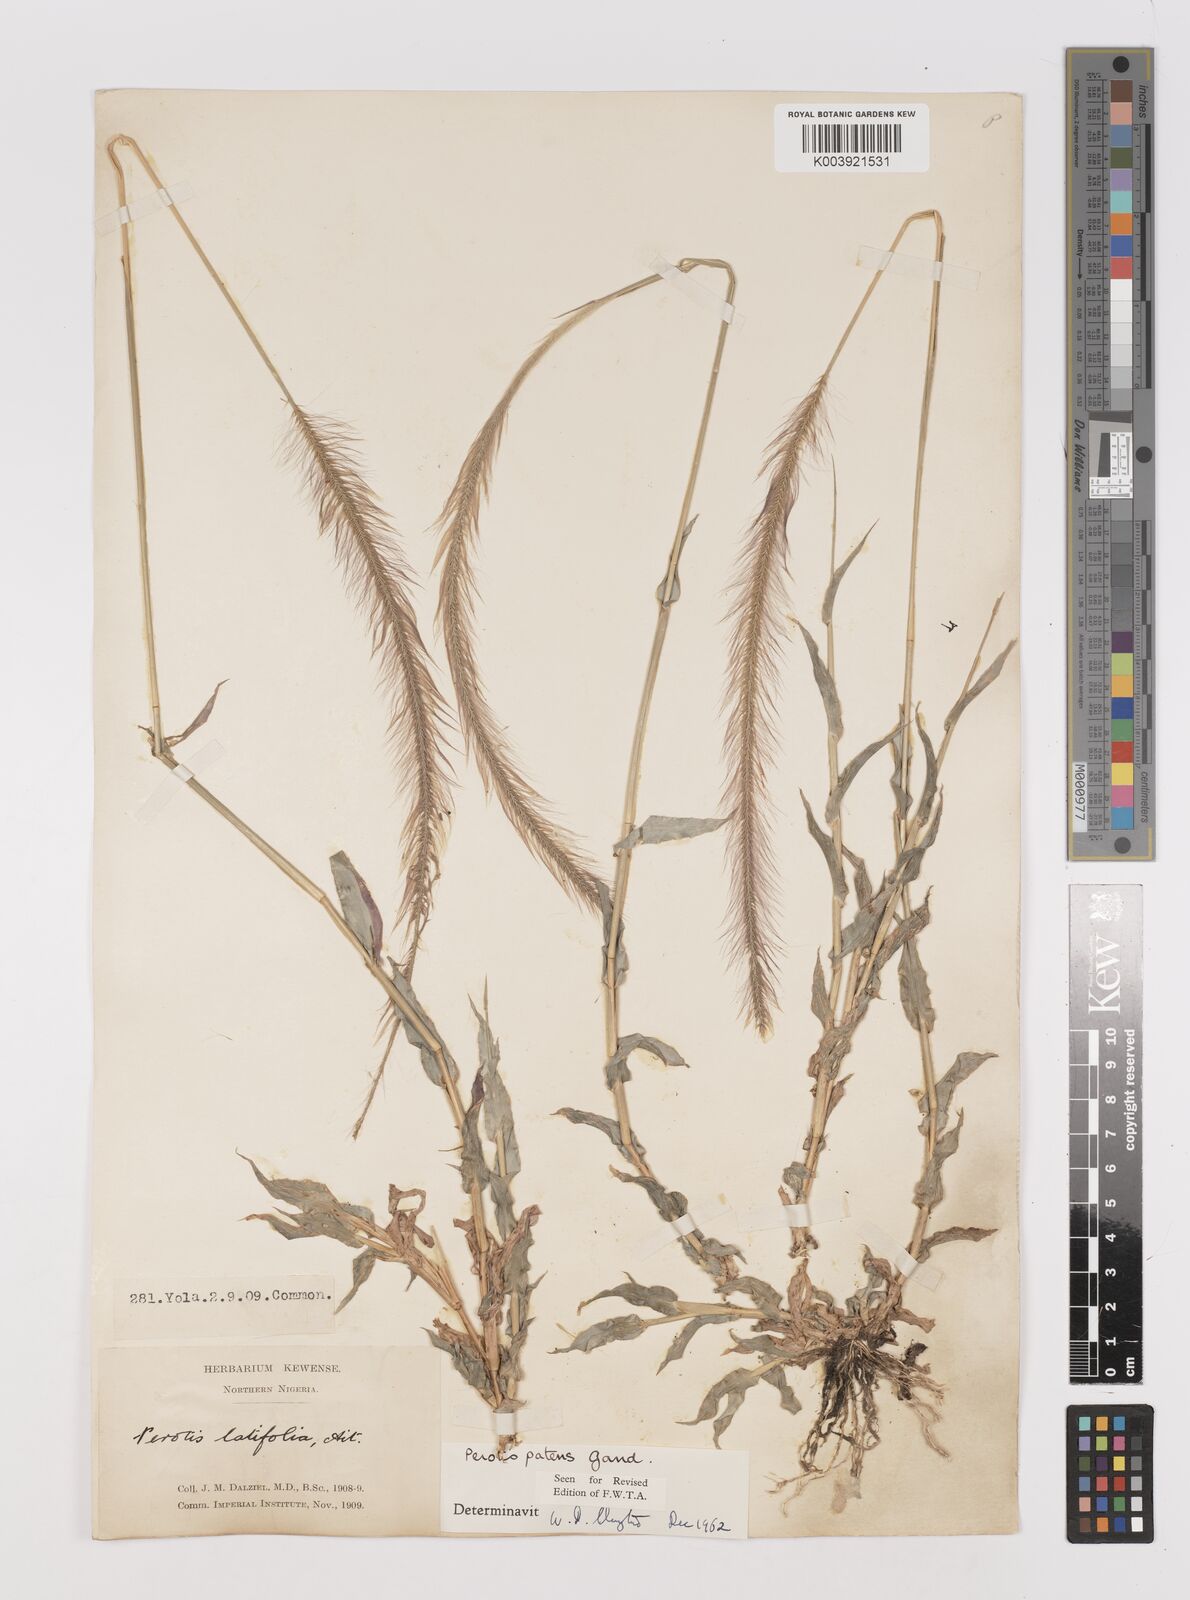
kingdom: Plantae
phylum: Tracheophyta
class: Liliopsida
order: Poales
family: Poaceae
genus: Perotis
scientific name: Perotis patens
